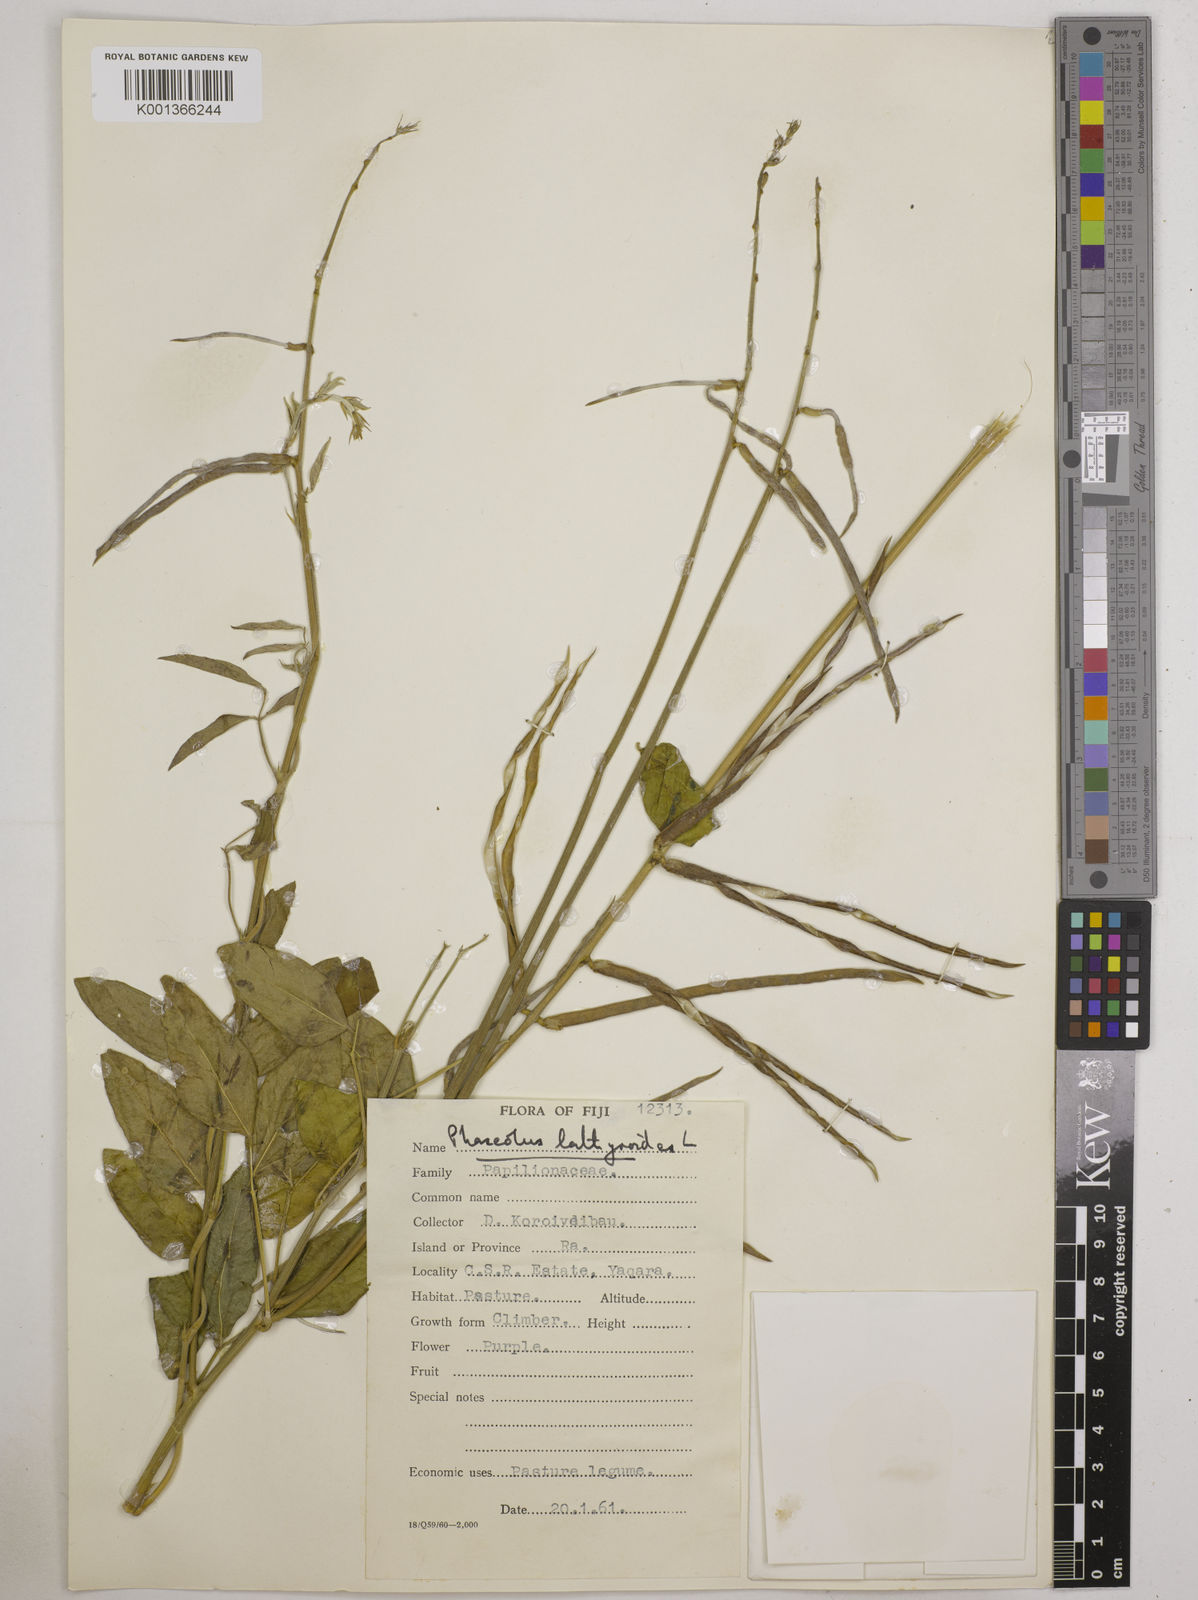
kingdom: Plantae
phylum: Tracheophyta
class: Magnoliopsida
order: Fabales
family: Fabaceae
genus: Macroptilium
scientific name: Macroptilium lathyroides
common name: Wild bushbean
